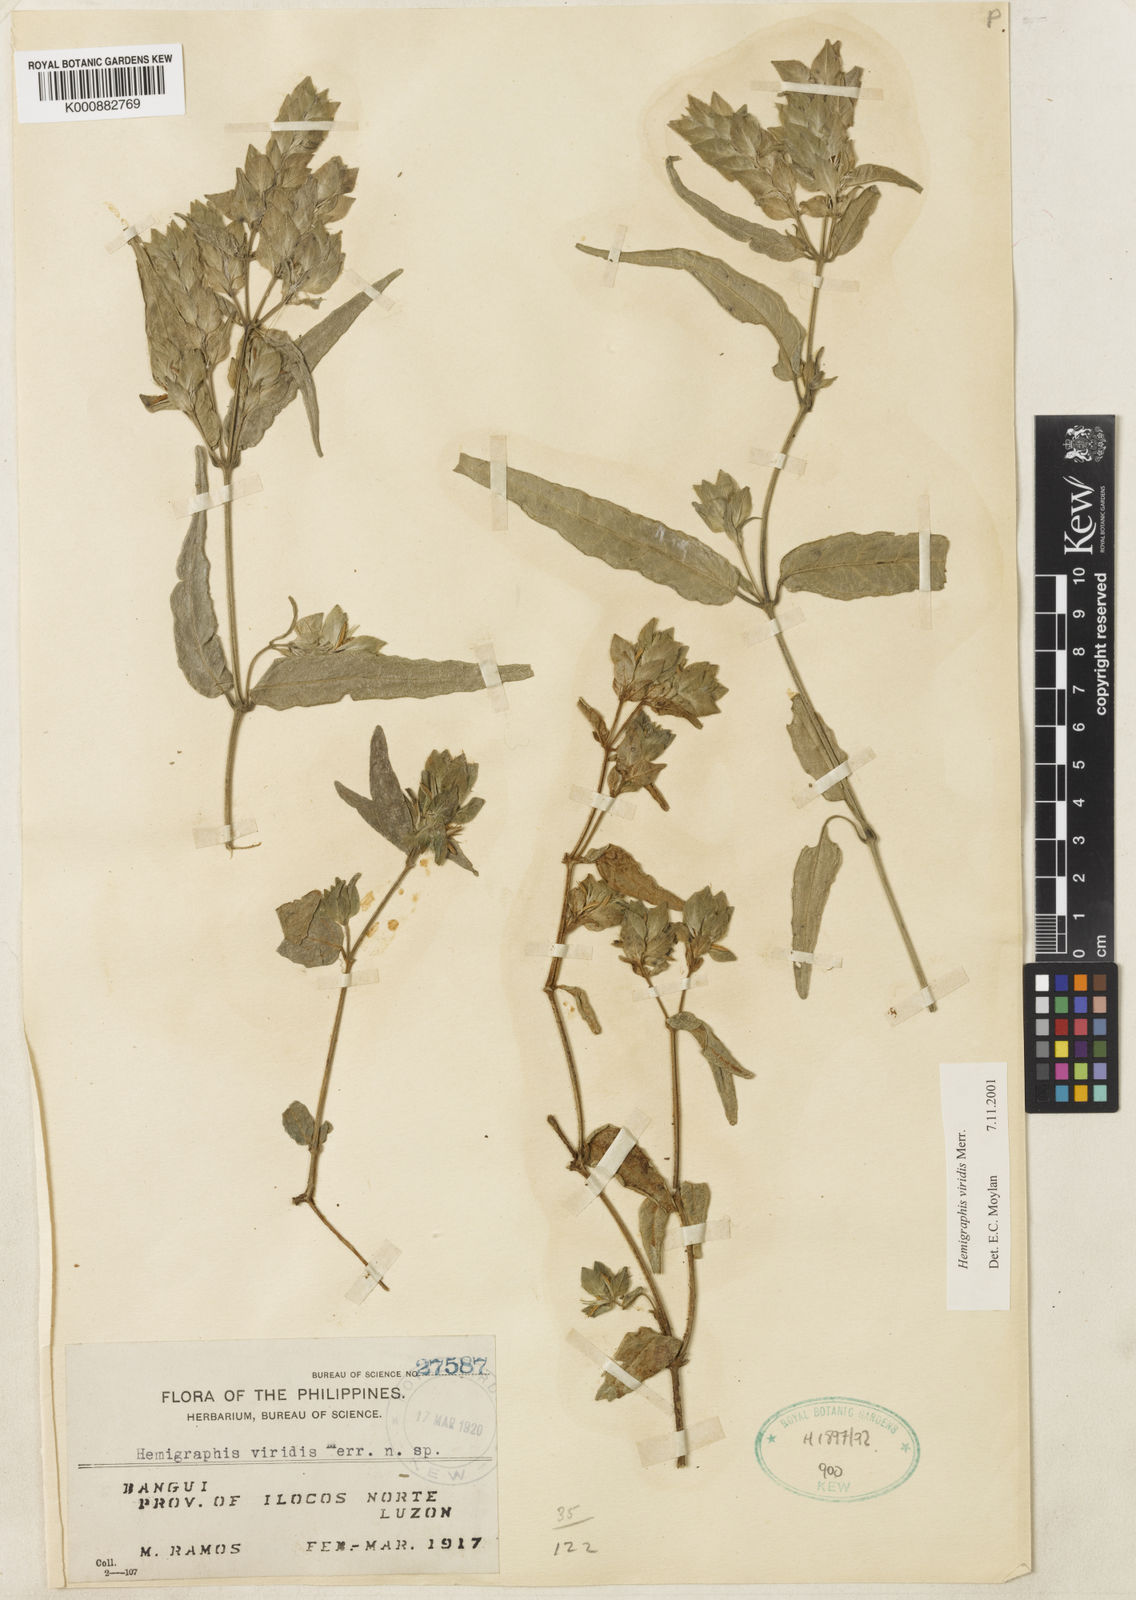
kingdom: Plantae
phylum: Tracheophyta
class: Magnoliopsida
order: Lamiales
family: Acanthaceae
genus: Strobilanthes
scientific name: Strobilanthes viridis
